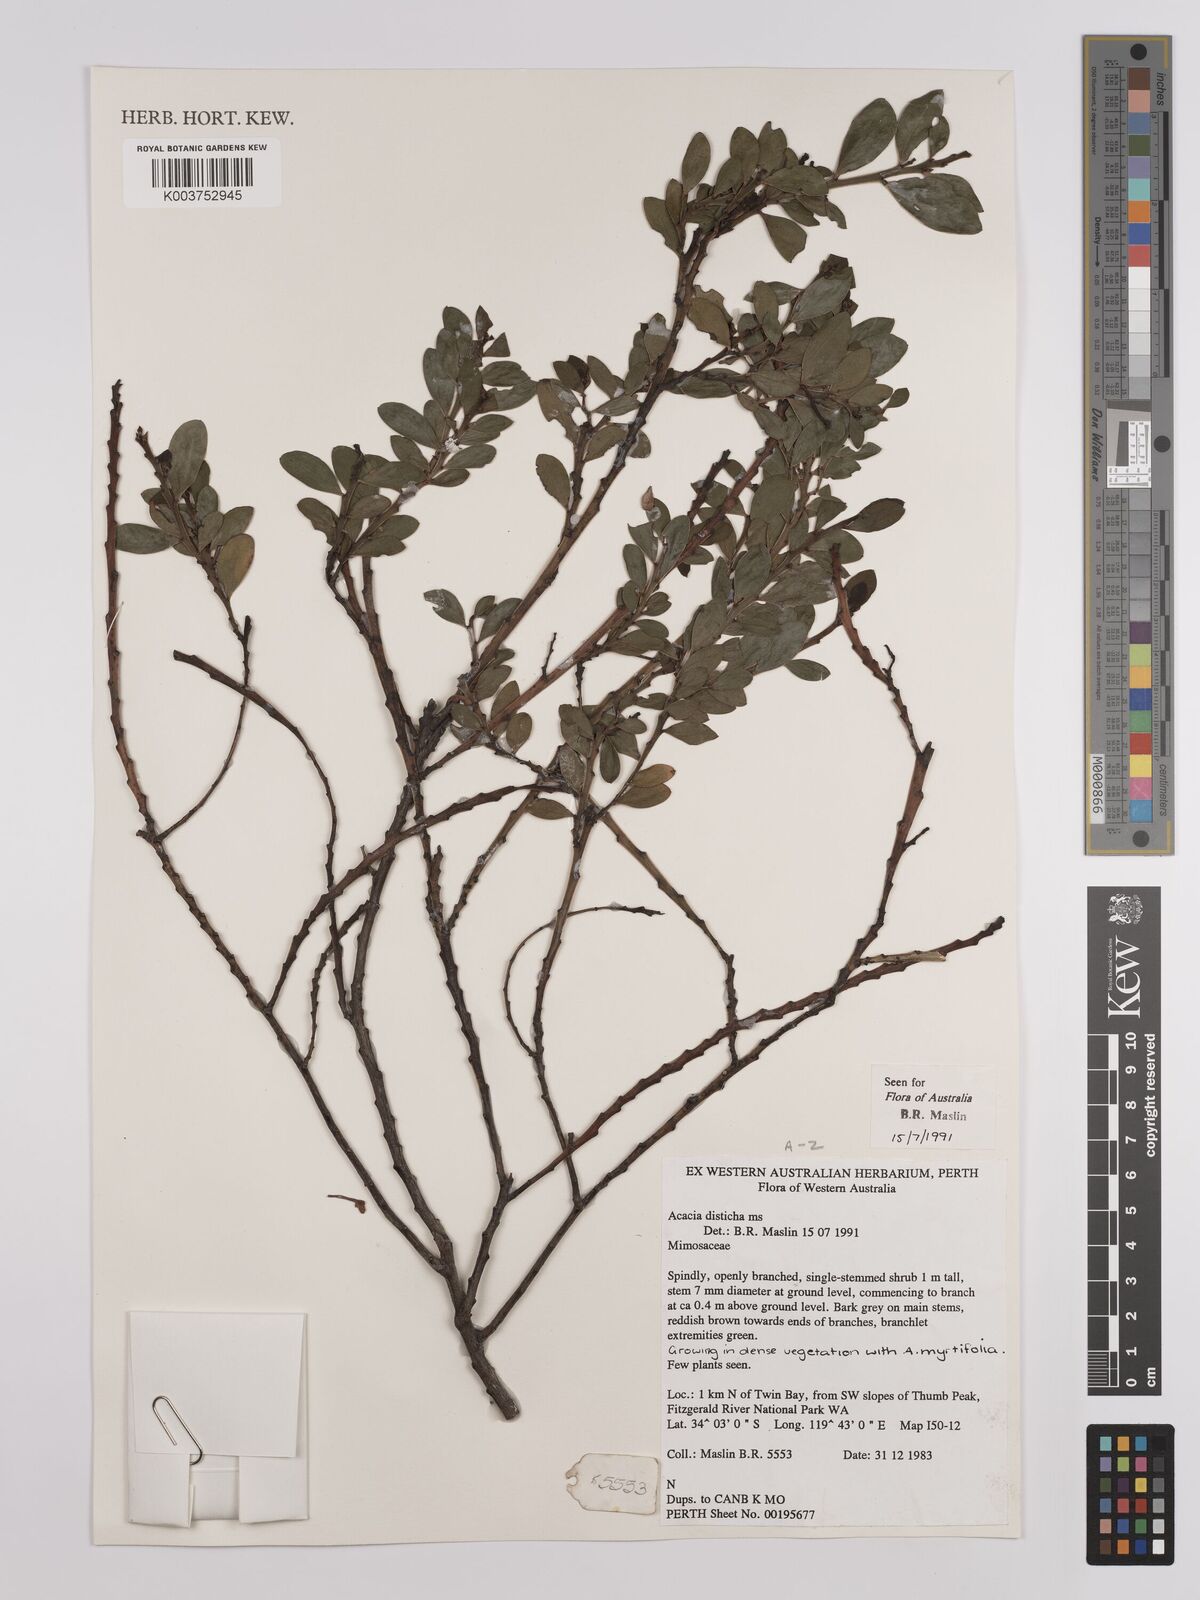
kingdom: Plantae
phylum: Tracheophyta
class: Magnoliopsida
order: Fabales
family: Fabaceae
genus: Acacia
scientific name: Acacia disticha
